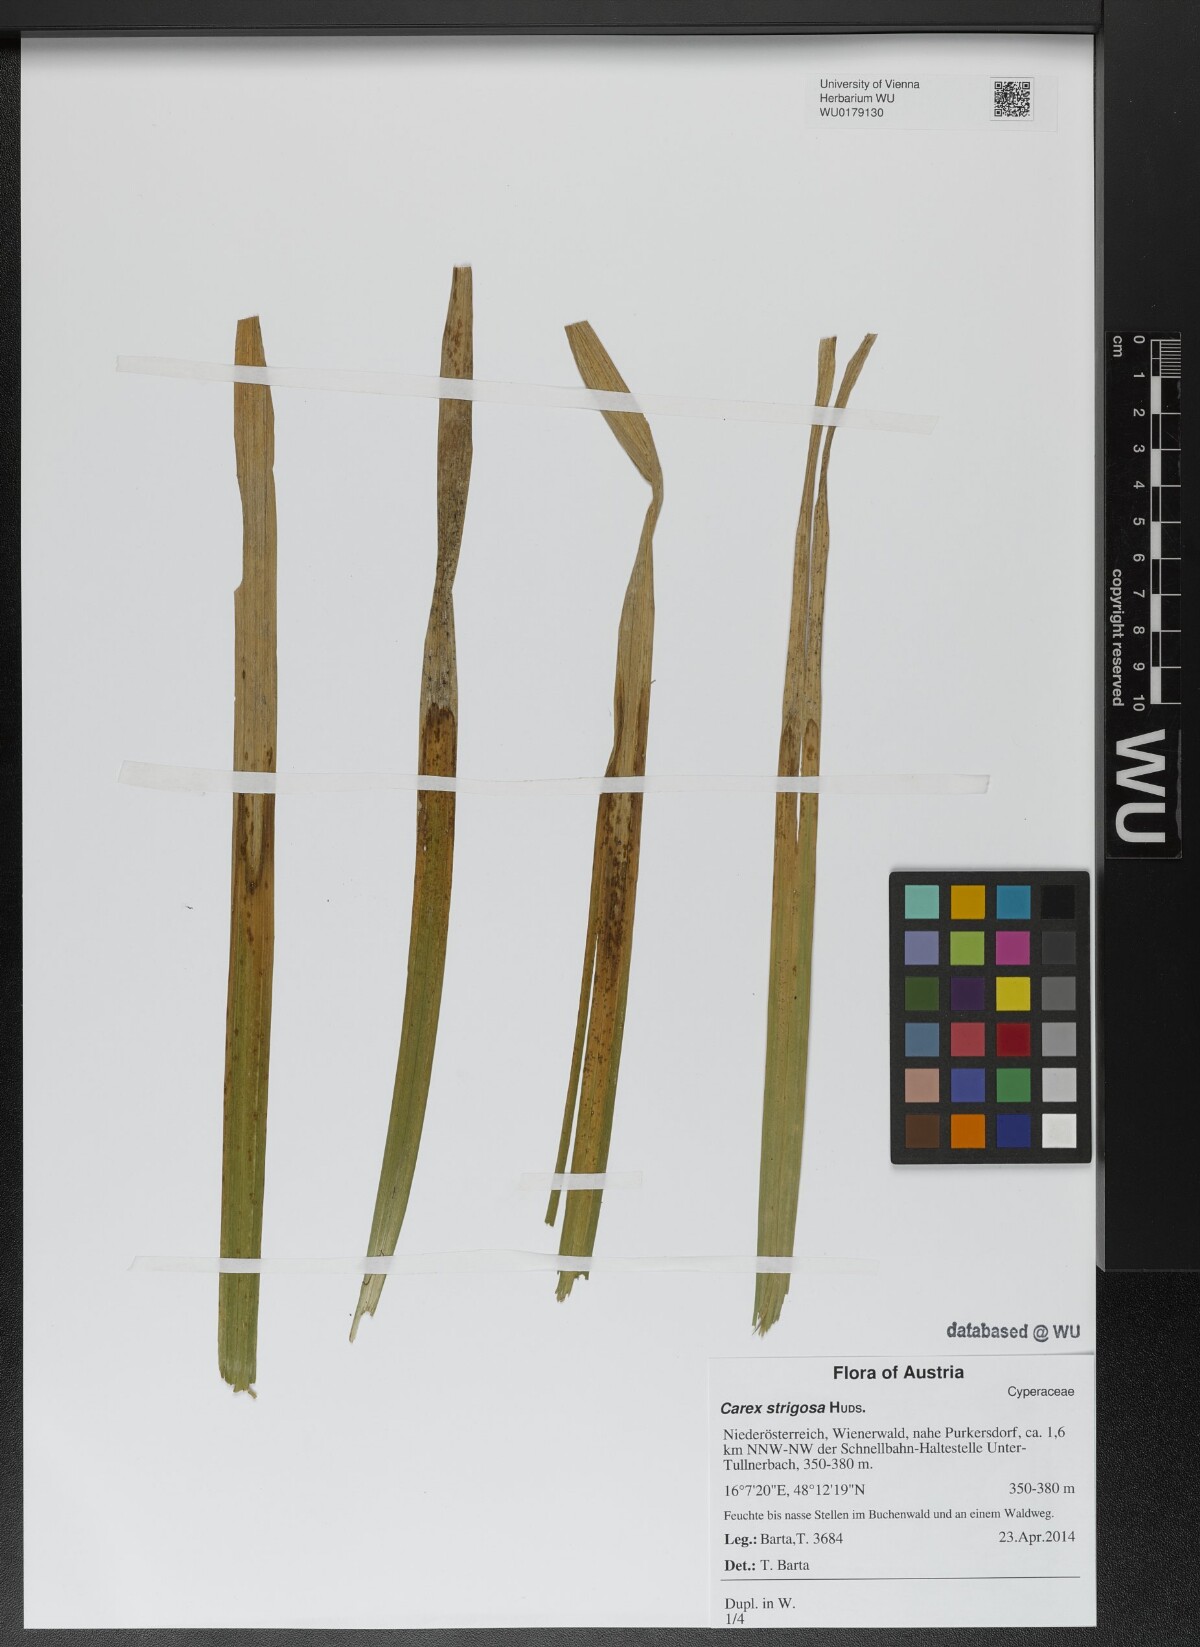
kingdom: Plantae
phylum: Tracheophyta
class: Liliopsida
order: Poales
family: Cyperaceae
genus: Carex
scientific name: Carex strigosa
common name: Thin-spiked wood-sedge
